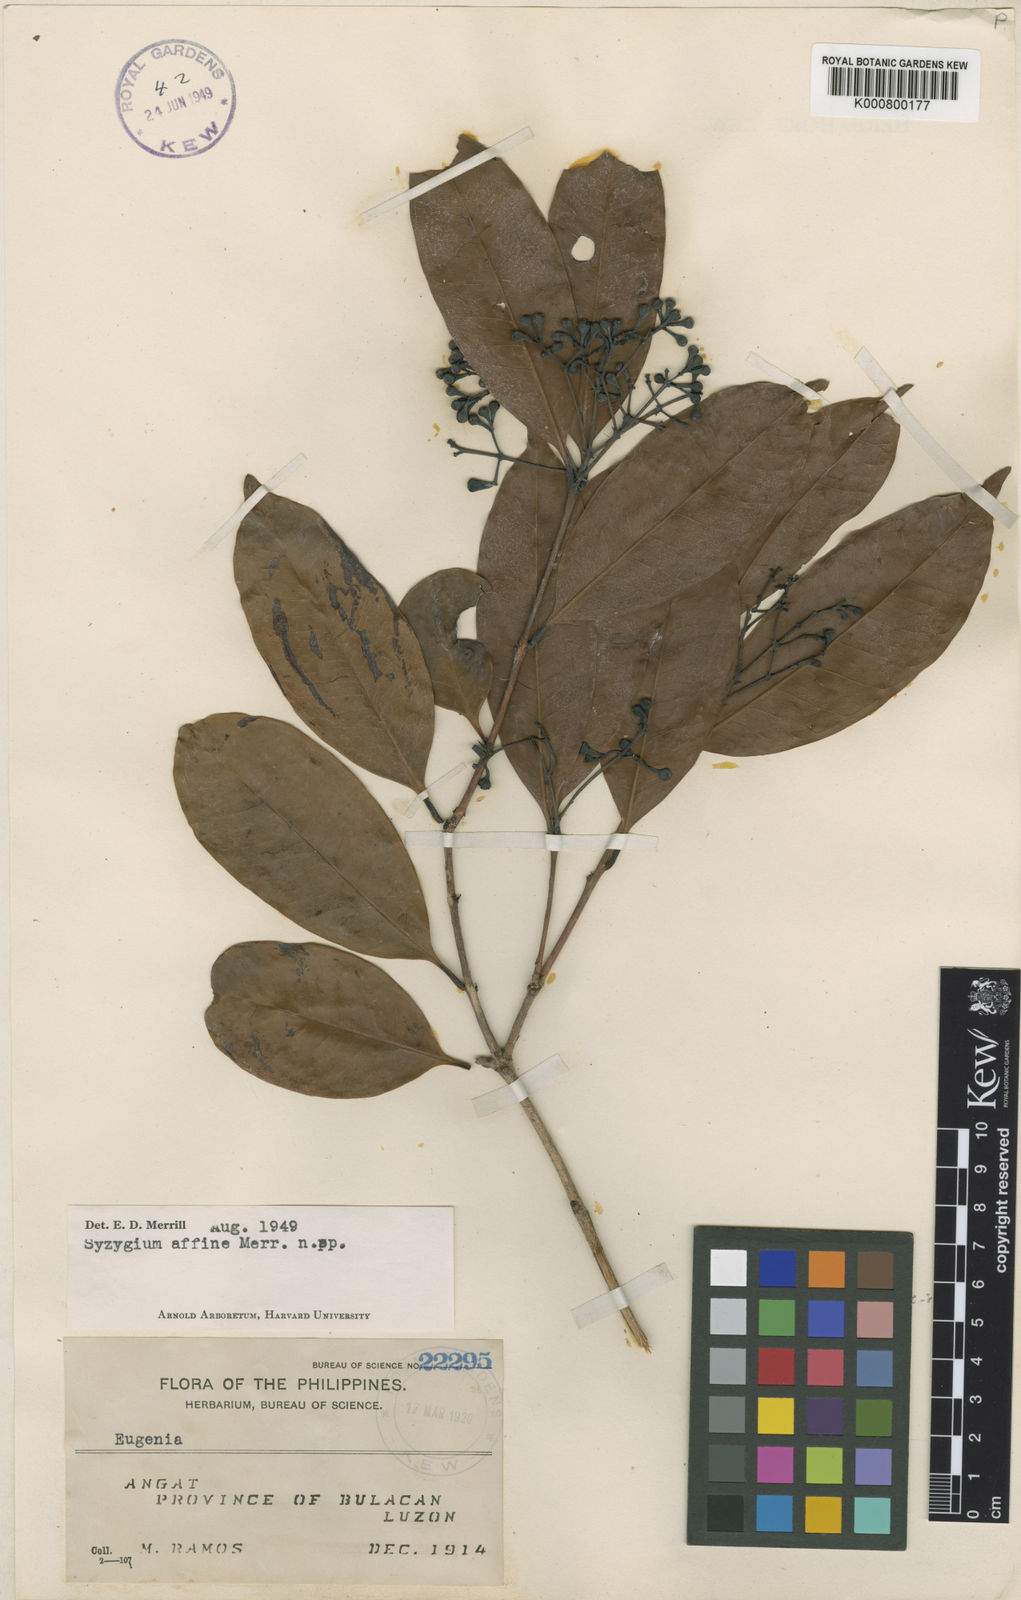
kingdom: Plantae
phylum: Tracheophyta
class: Magnoliopsida
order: Myrtales
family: Myrtaceae
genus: Syzygium
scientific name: Syzygium affine
